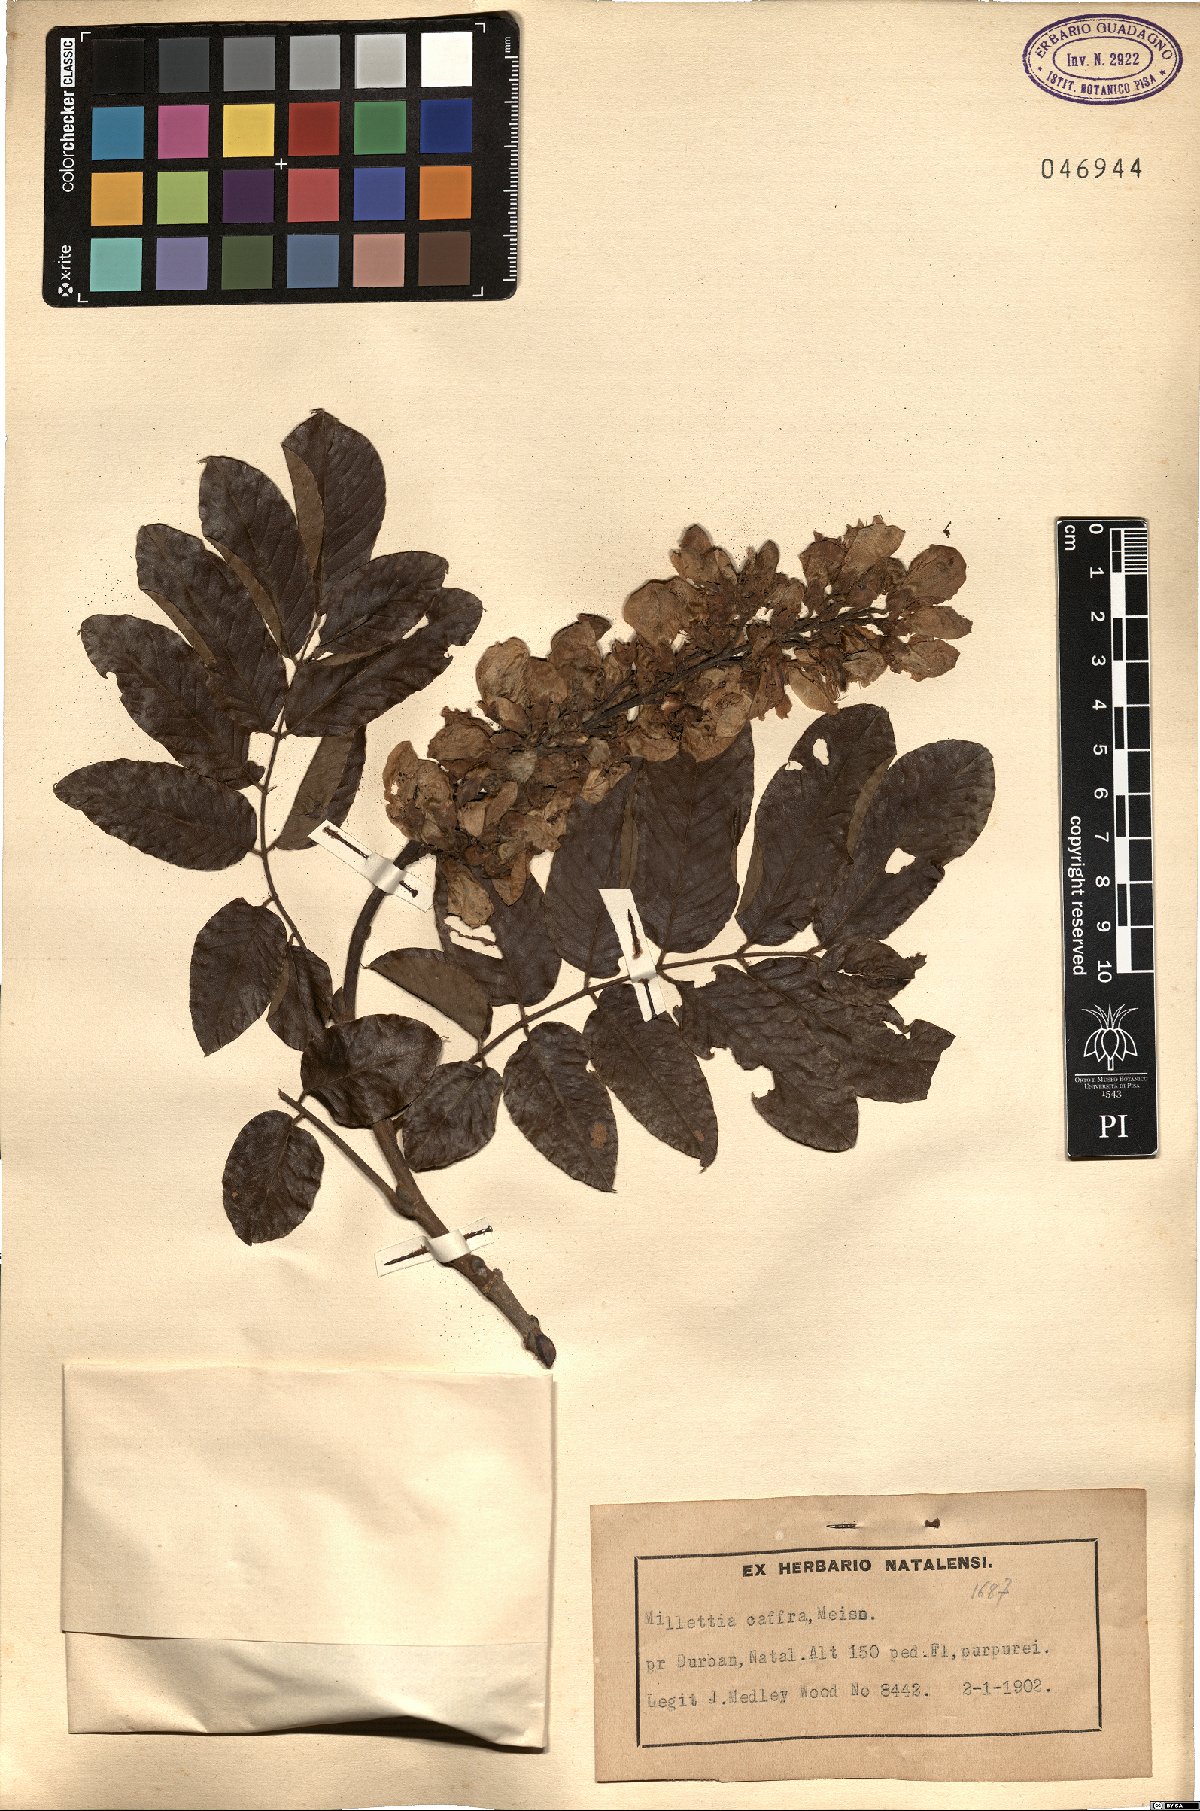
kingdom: Plantae
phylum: Tracheophyta
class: Magnoliopsida
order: Fabales
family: Fabaceae
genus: Millettia
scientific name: Millettia grandis
